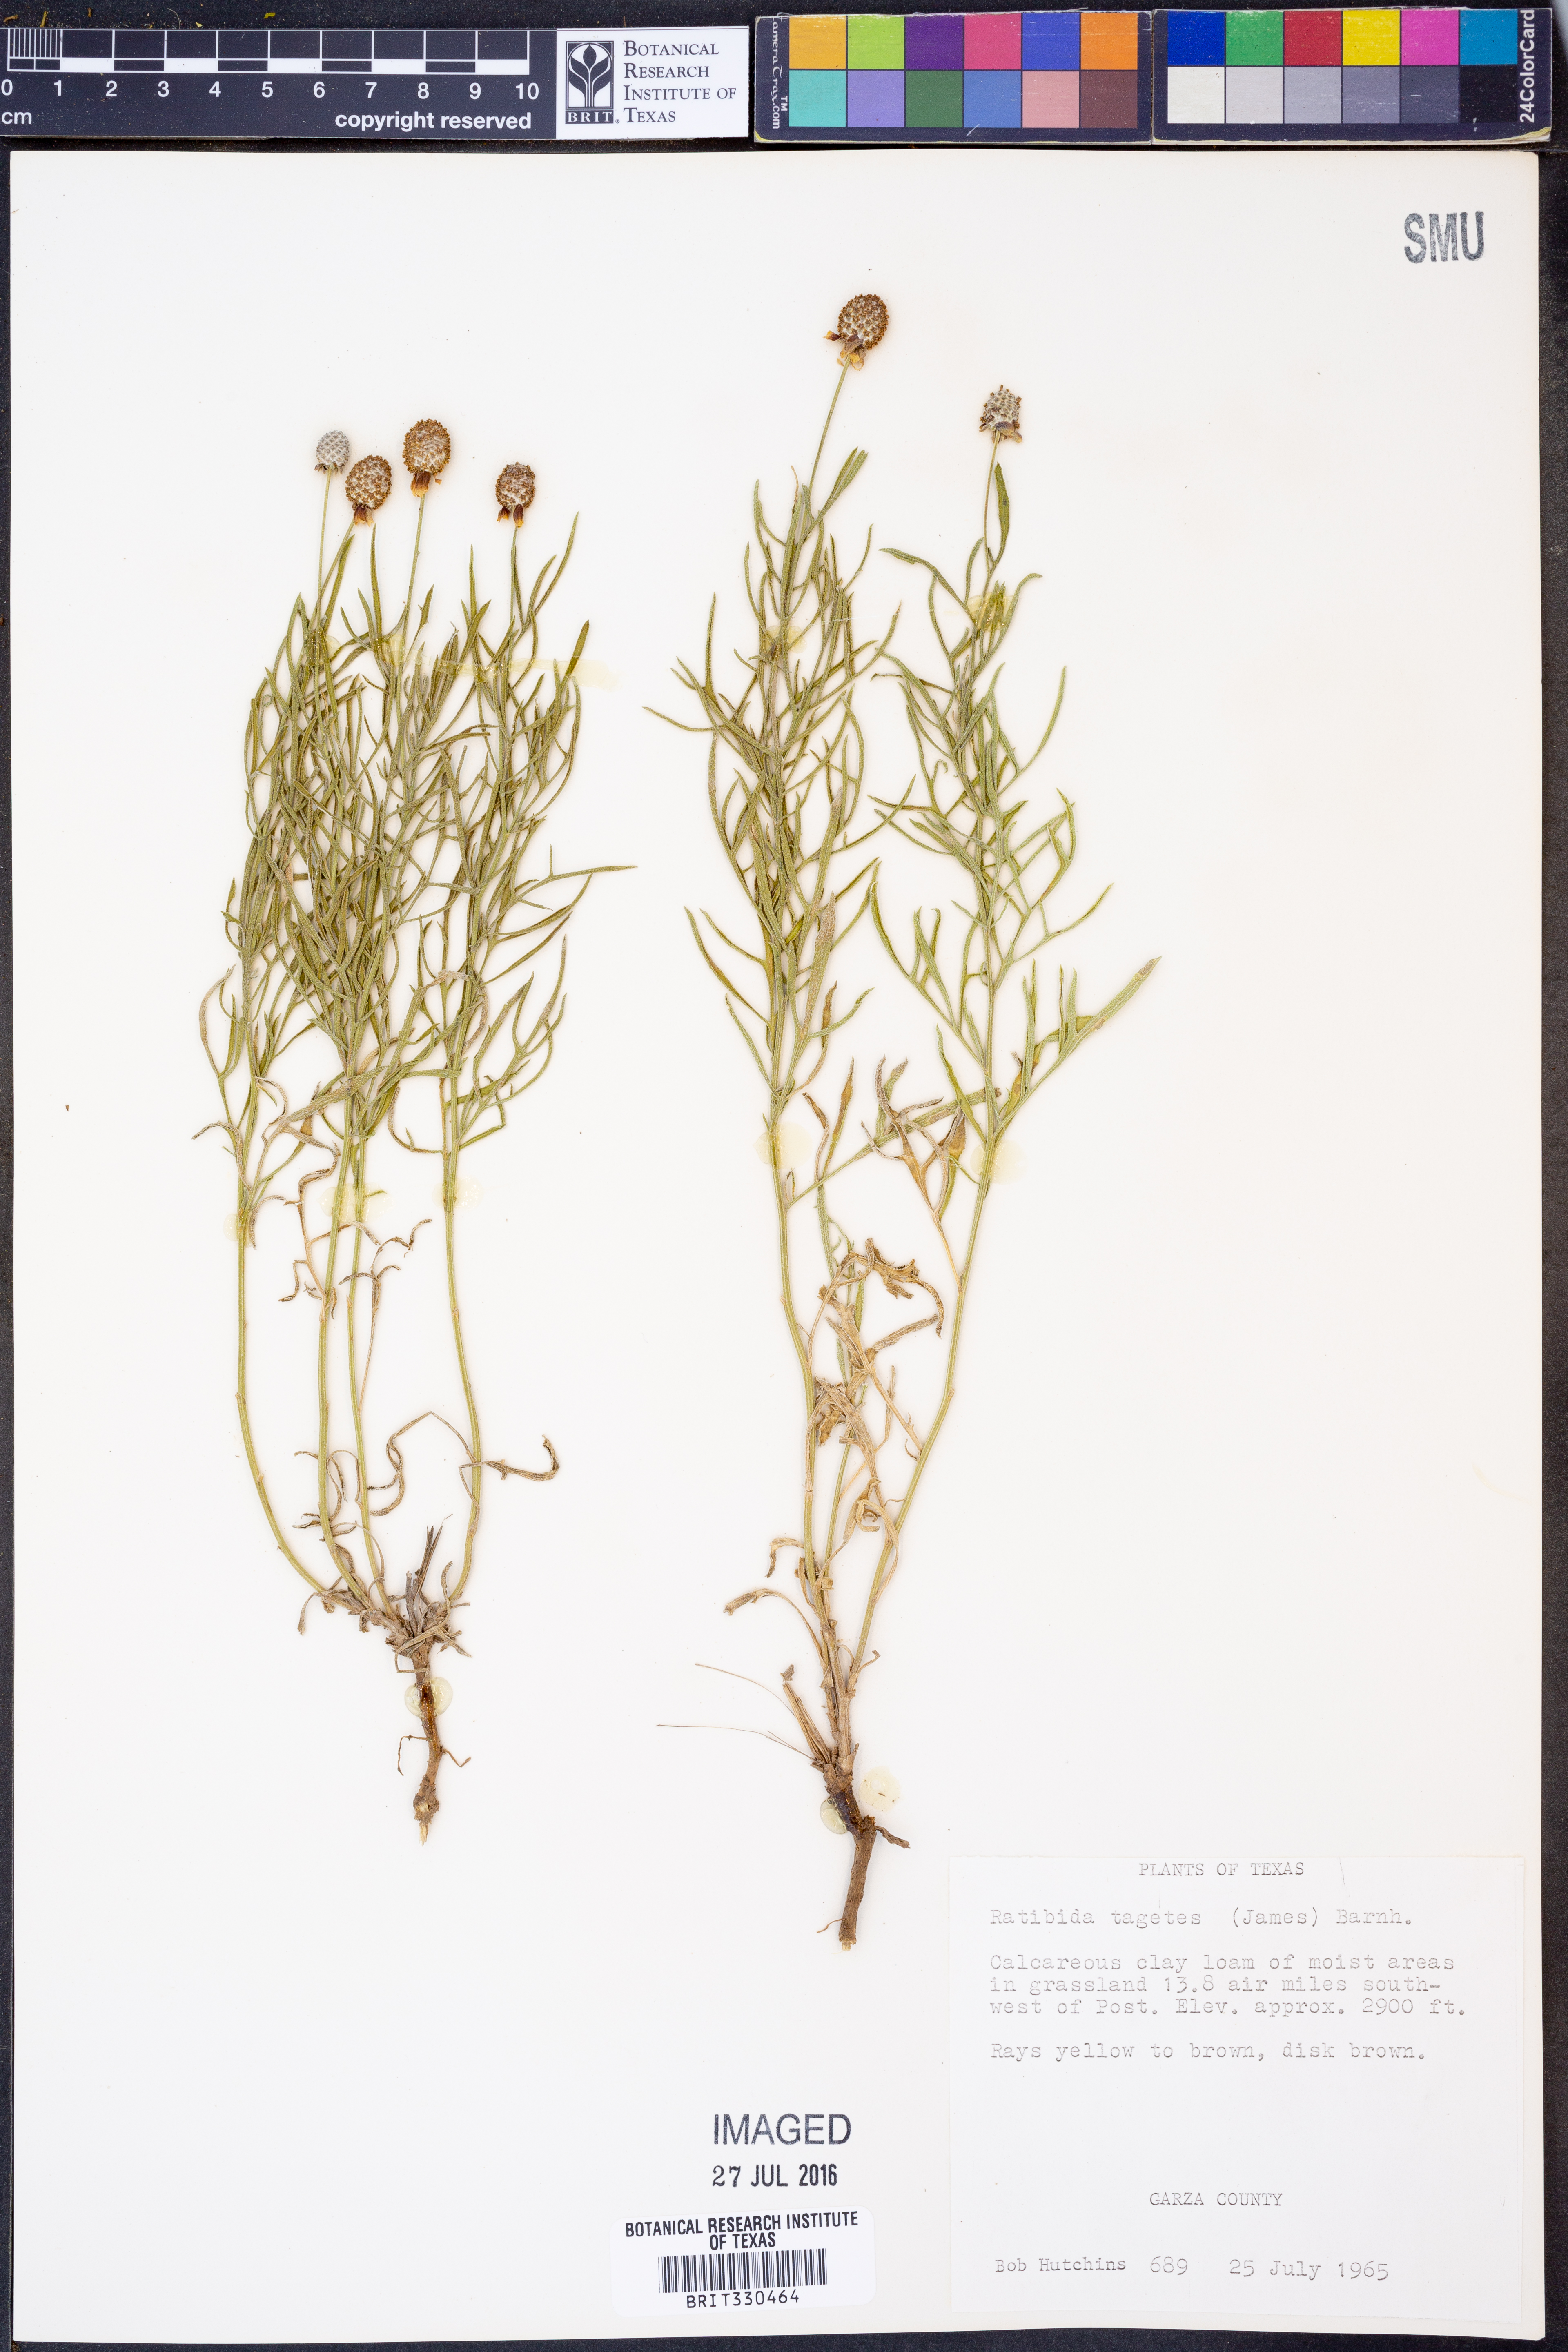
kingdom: Plantae
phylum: Tracheophyta
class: Magnoliopsida
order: Asterales
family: Asteraceae
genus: Ratibida
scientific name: Ratibida tagetes
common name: Green mexican-hat
